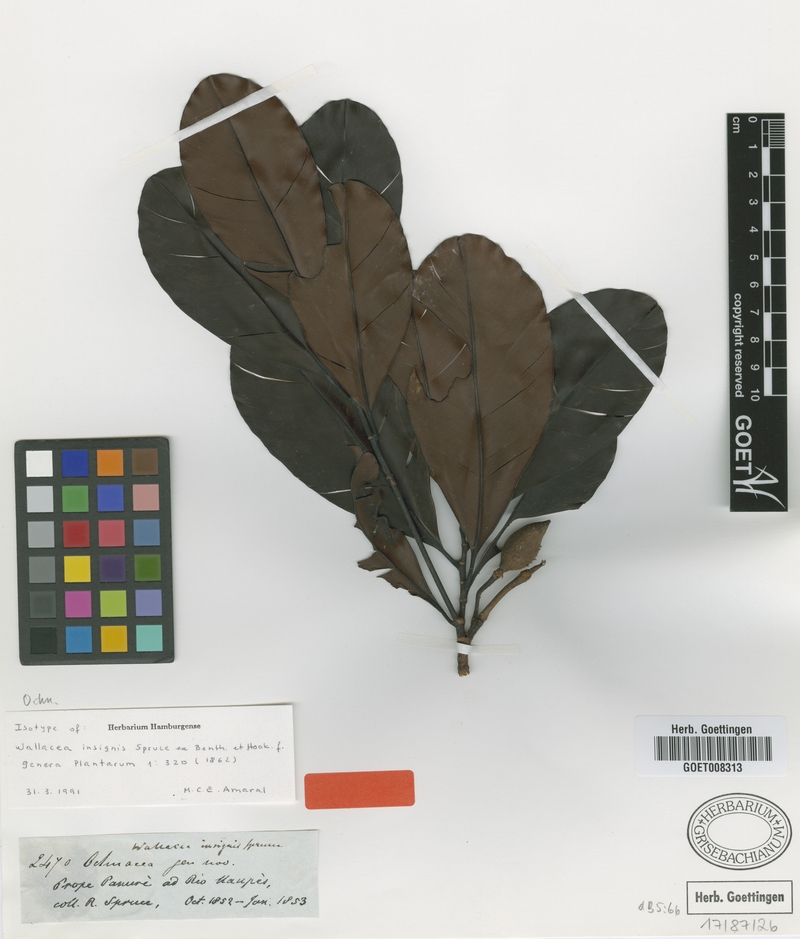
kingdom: Plantae
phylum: Tracheophyta
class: Magnoliopsida
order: Malpighiales
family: Ochnaceae
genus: Wallacea
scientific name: Wallacea insignis
